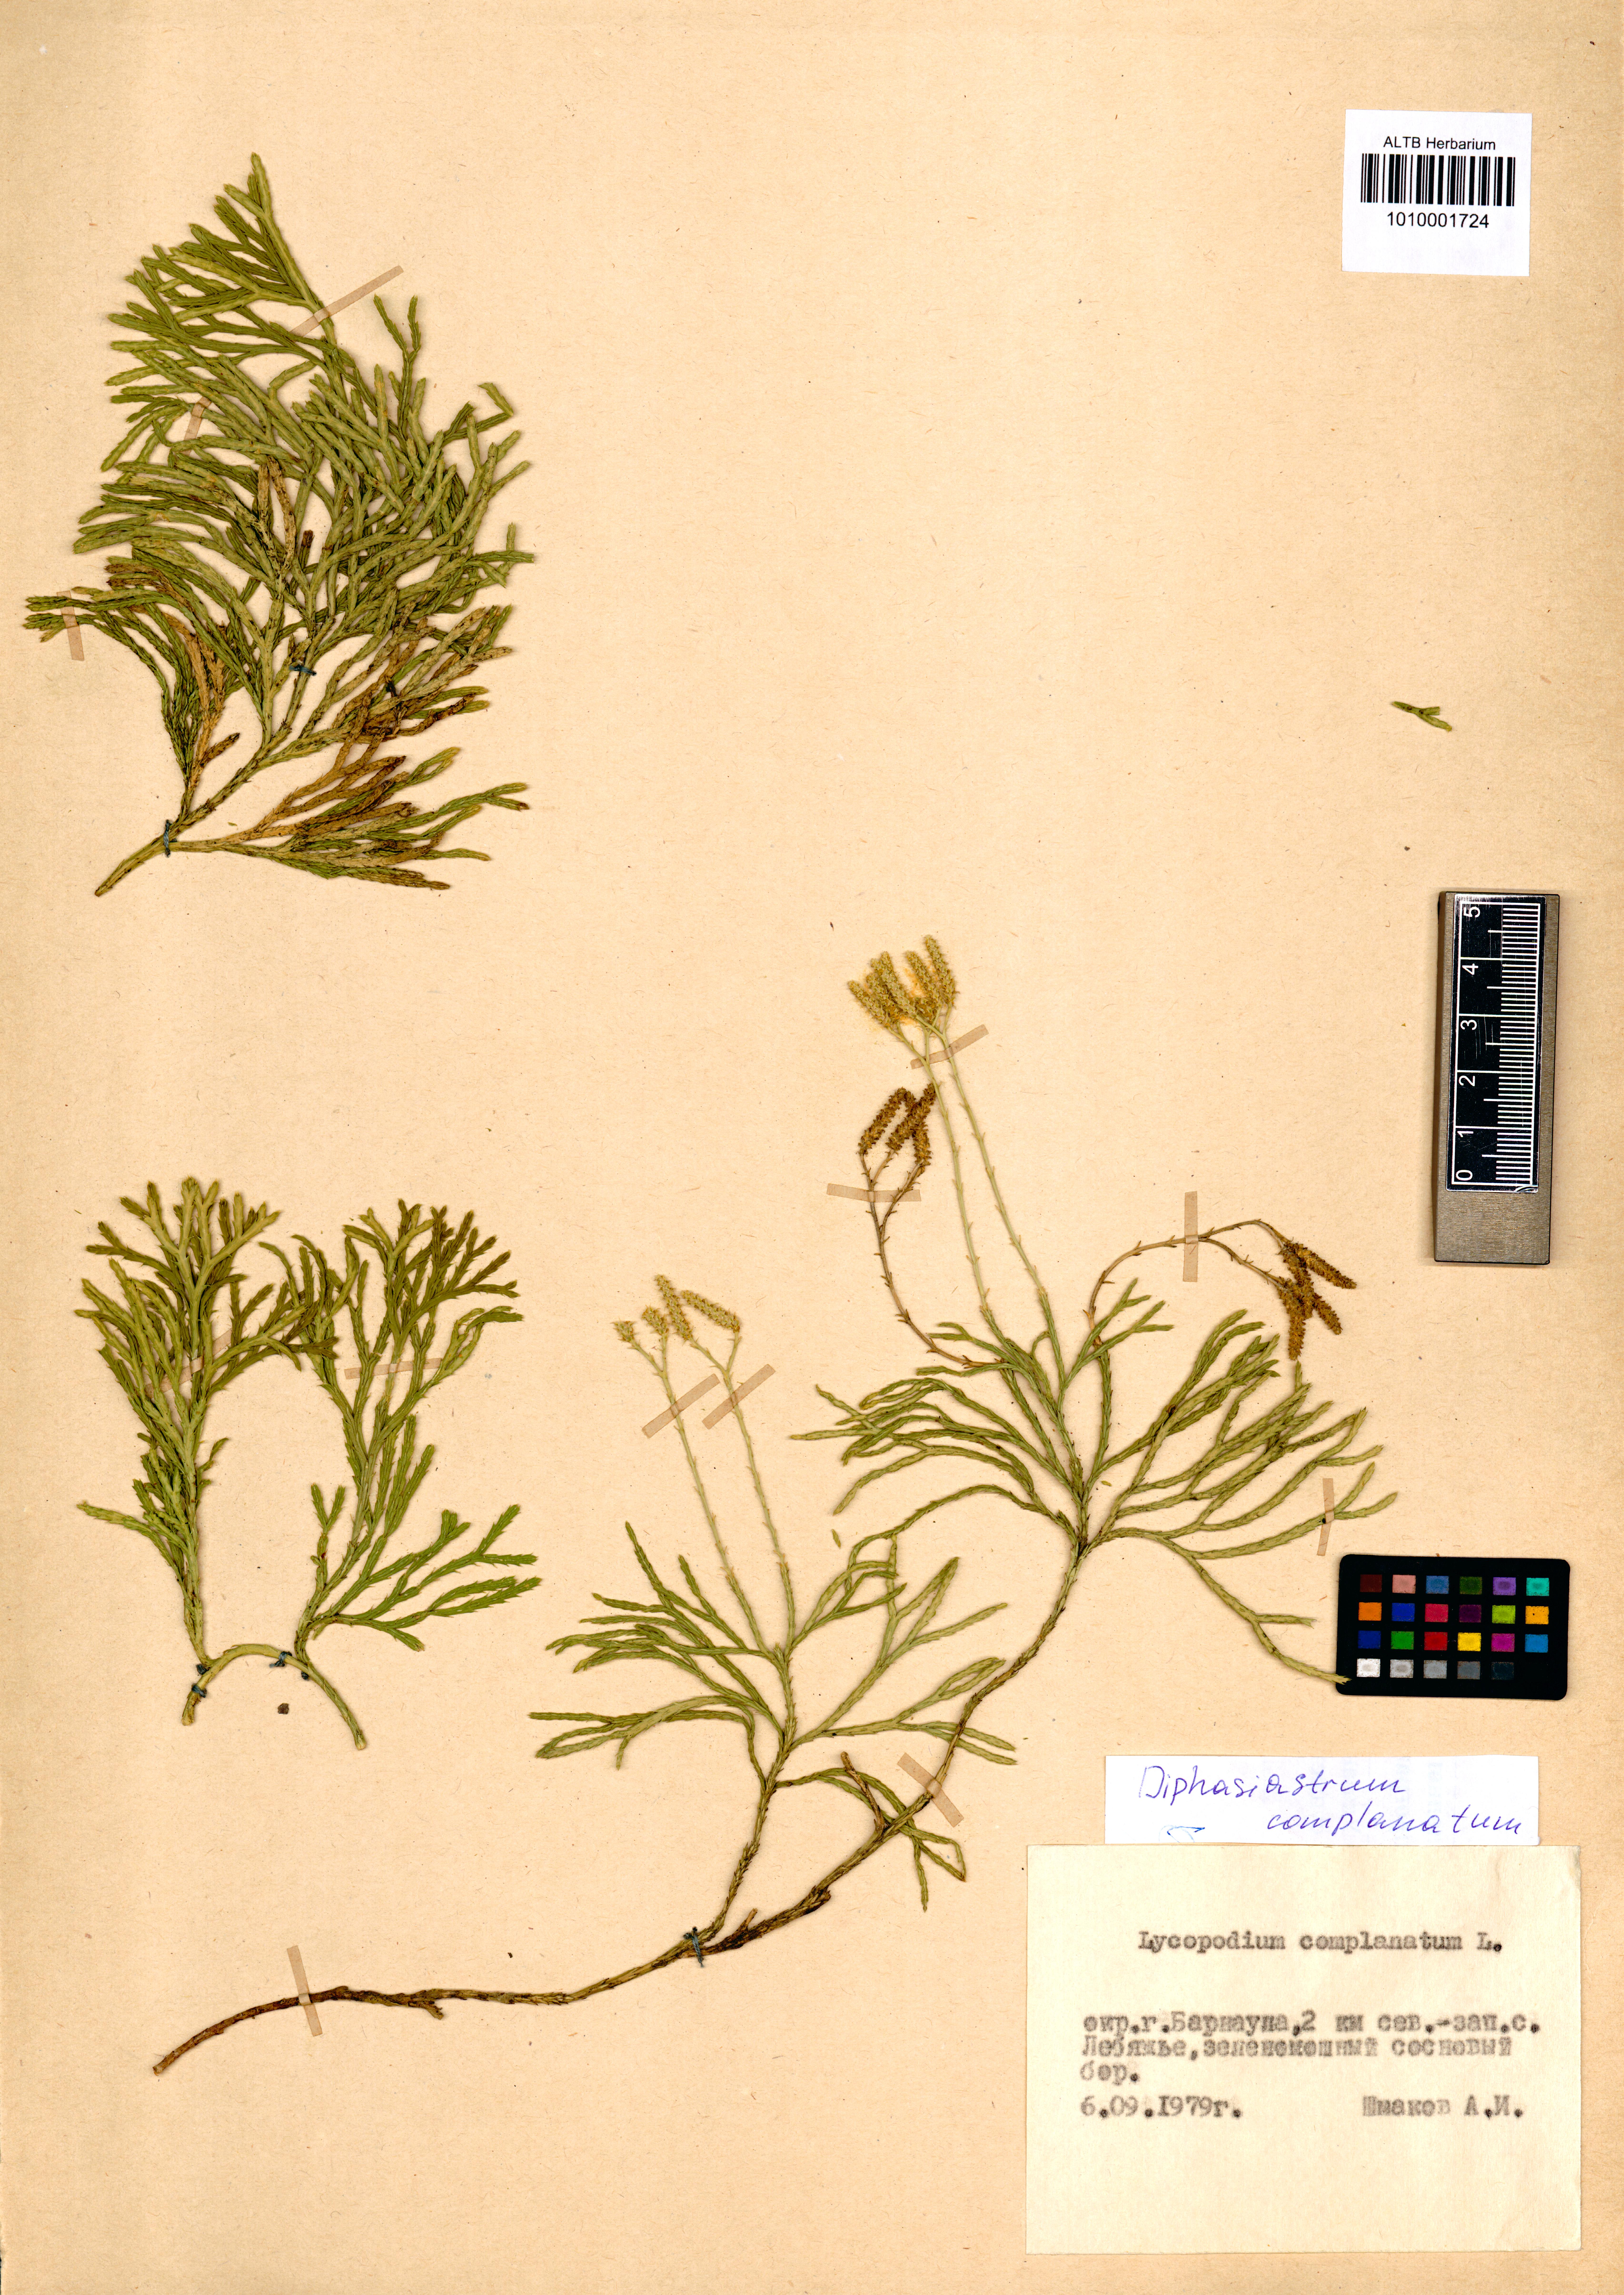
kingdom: Plantae
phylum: Tracheophyta
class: Lycopodiopsida
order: Lycopodiales
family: Lycopodiaceae
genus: Diphasiastrum
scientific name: Diphasiastrum complanatum
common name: Northern running-pine
